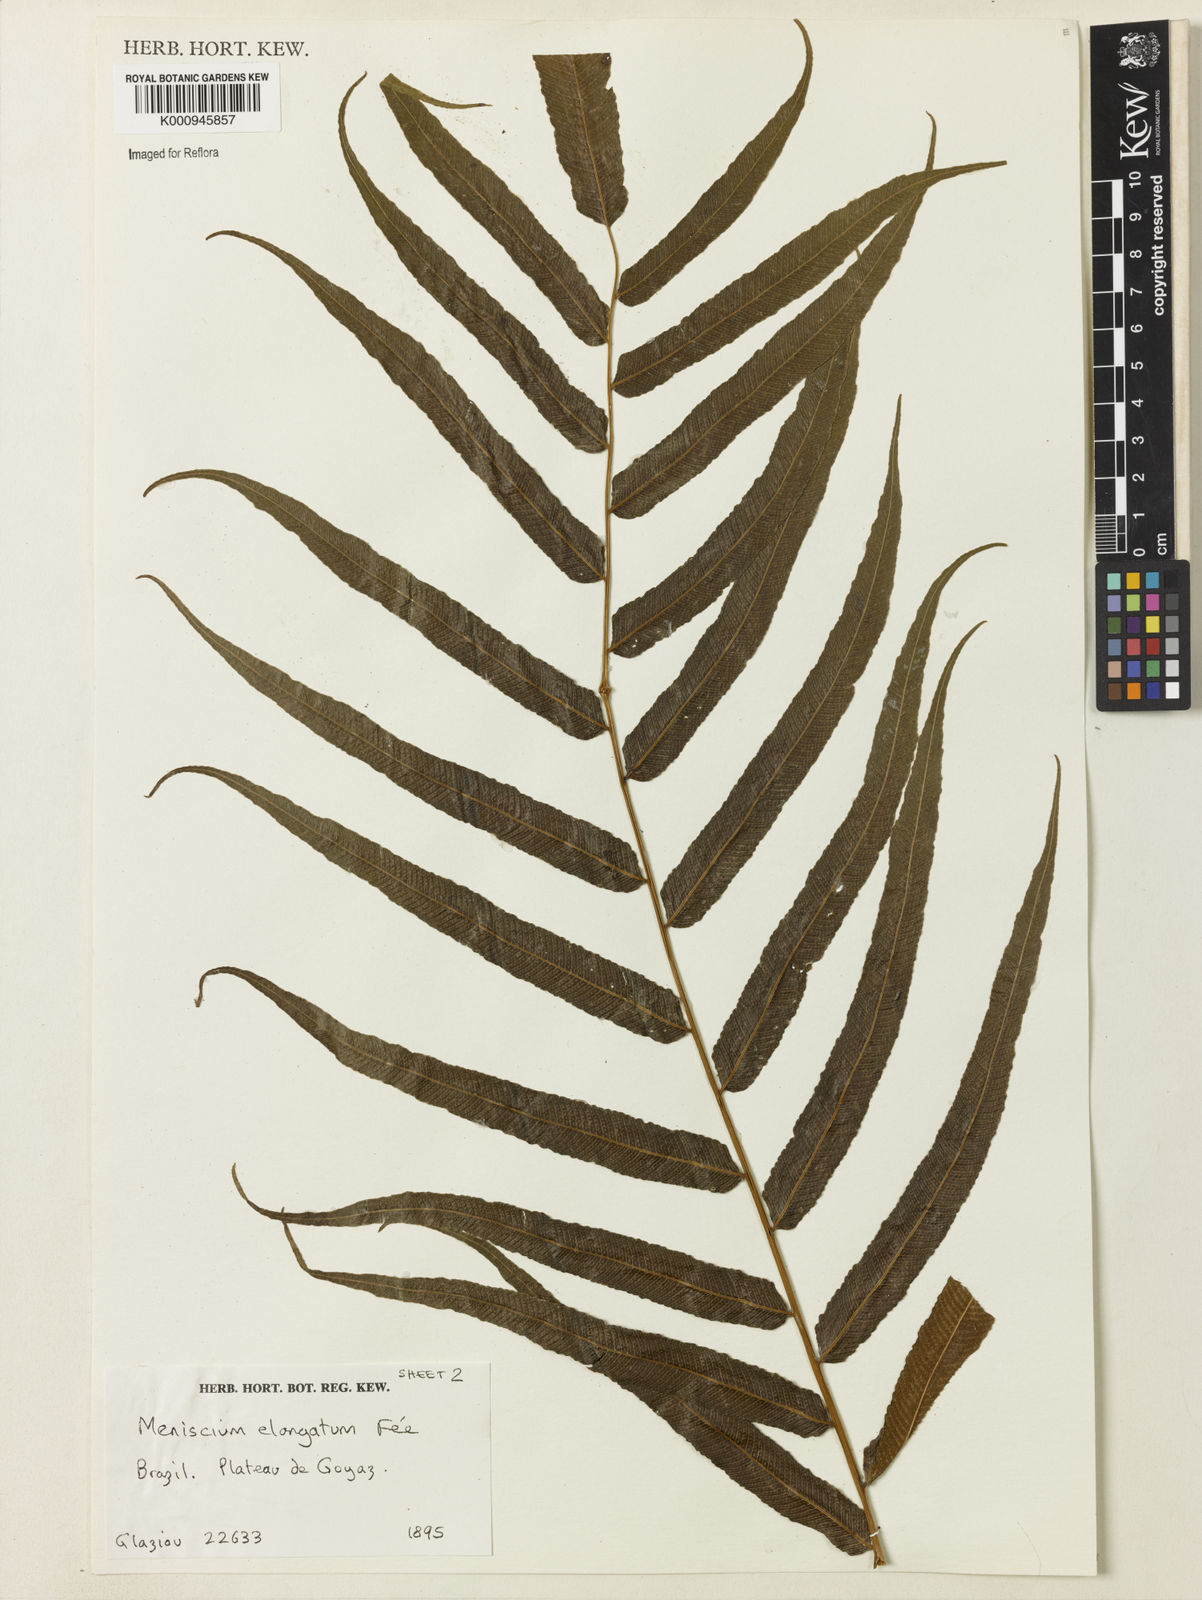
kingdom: Plantae
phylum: Tracheophyta
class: Polypodiopsida
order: Polypodiales
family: Thelypteridaceae
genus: Meniscium
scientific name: Meniscium longifolium
